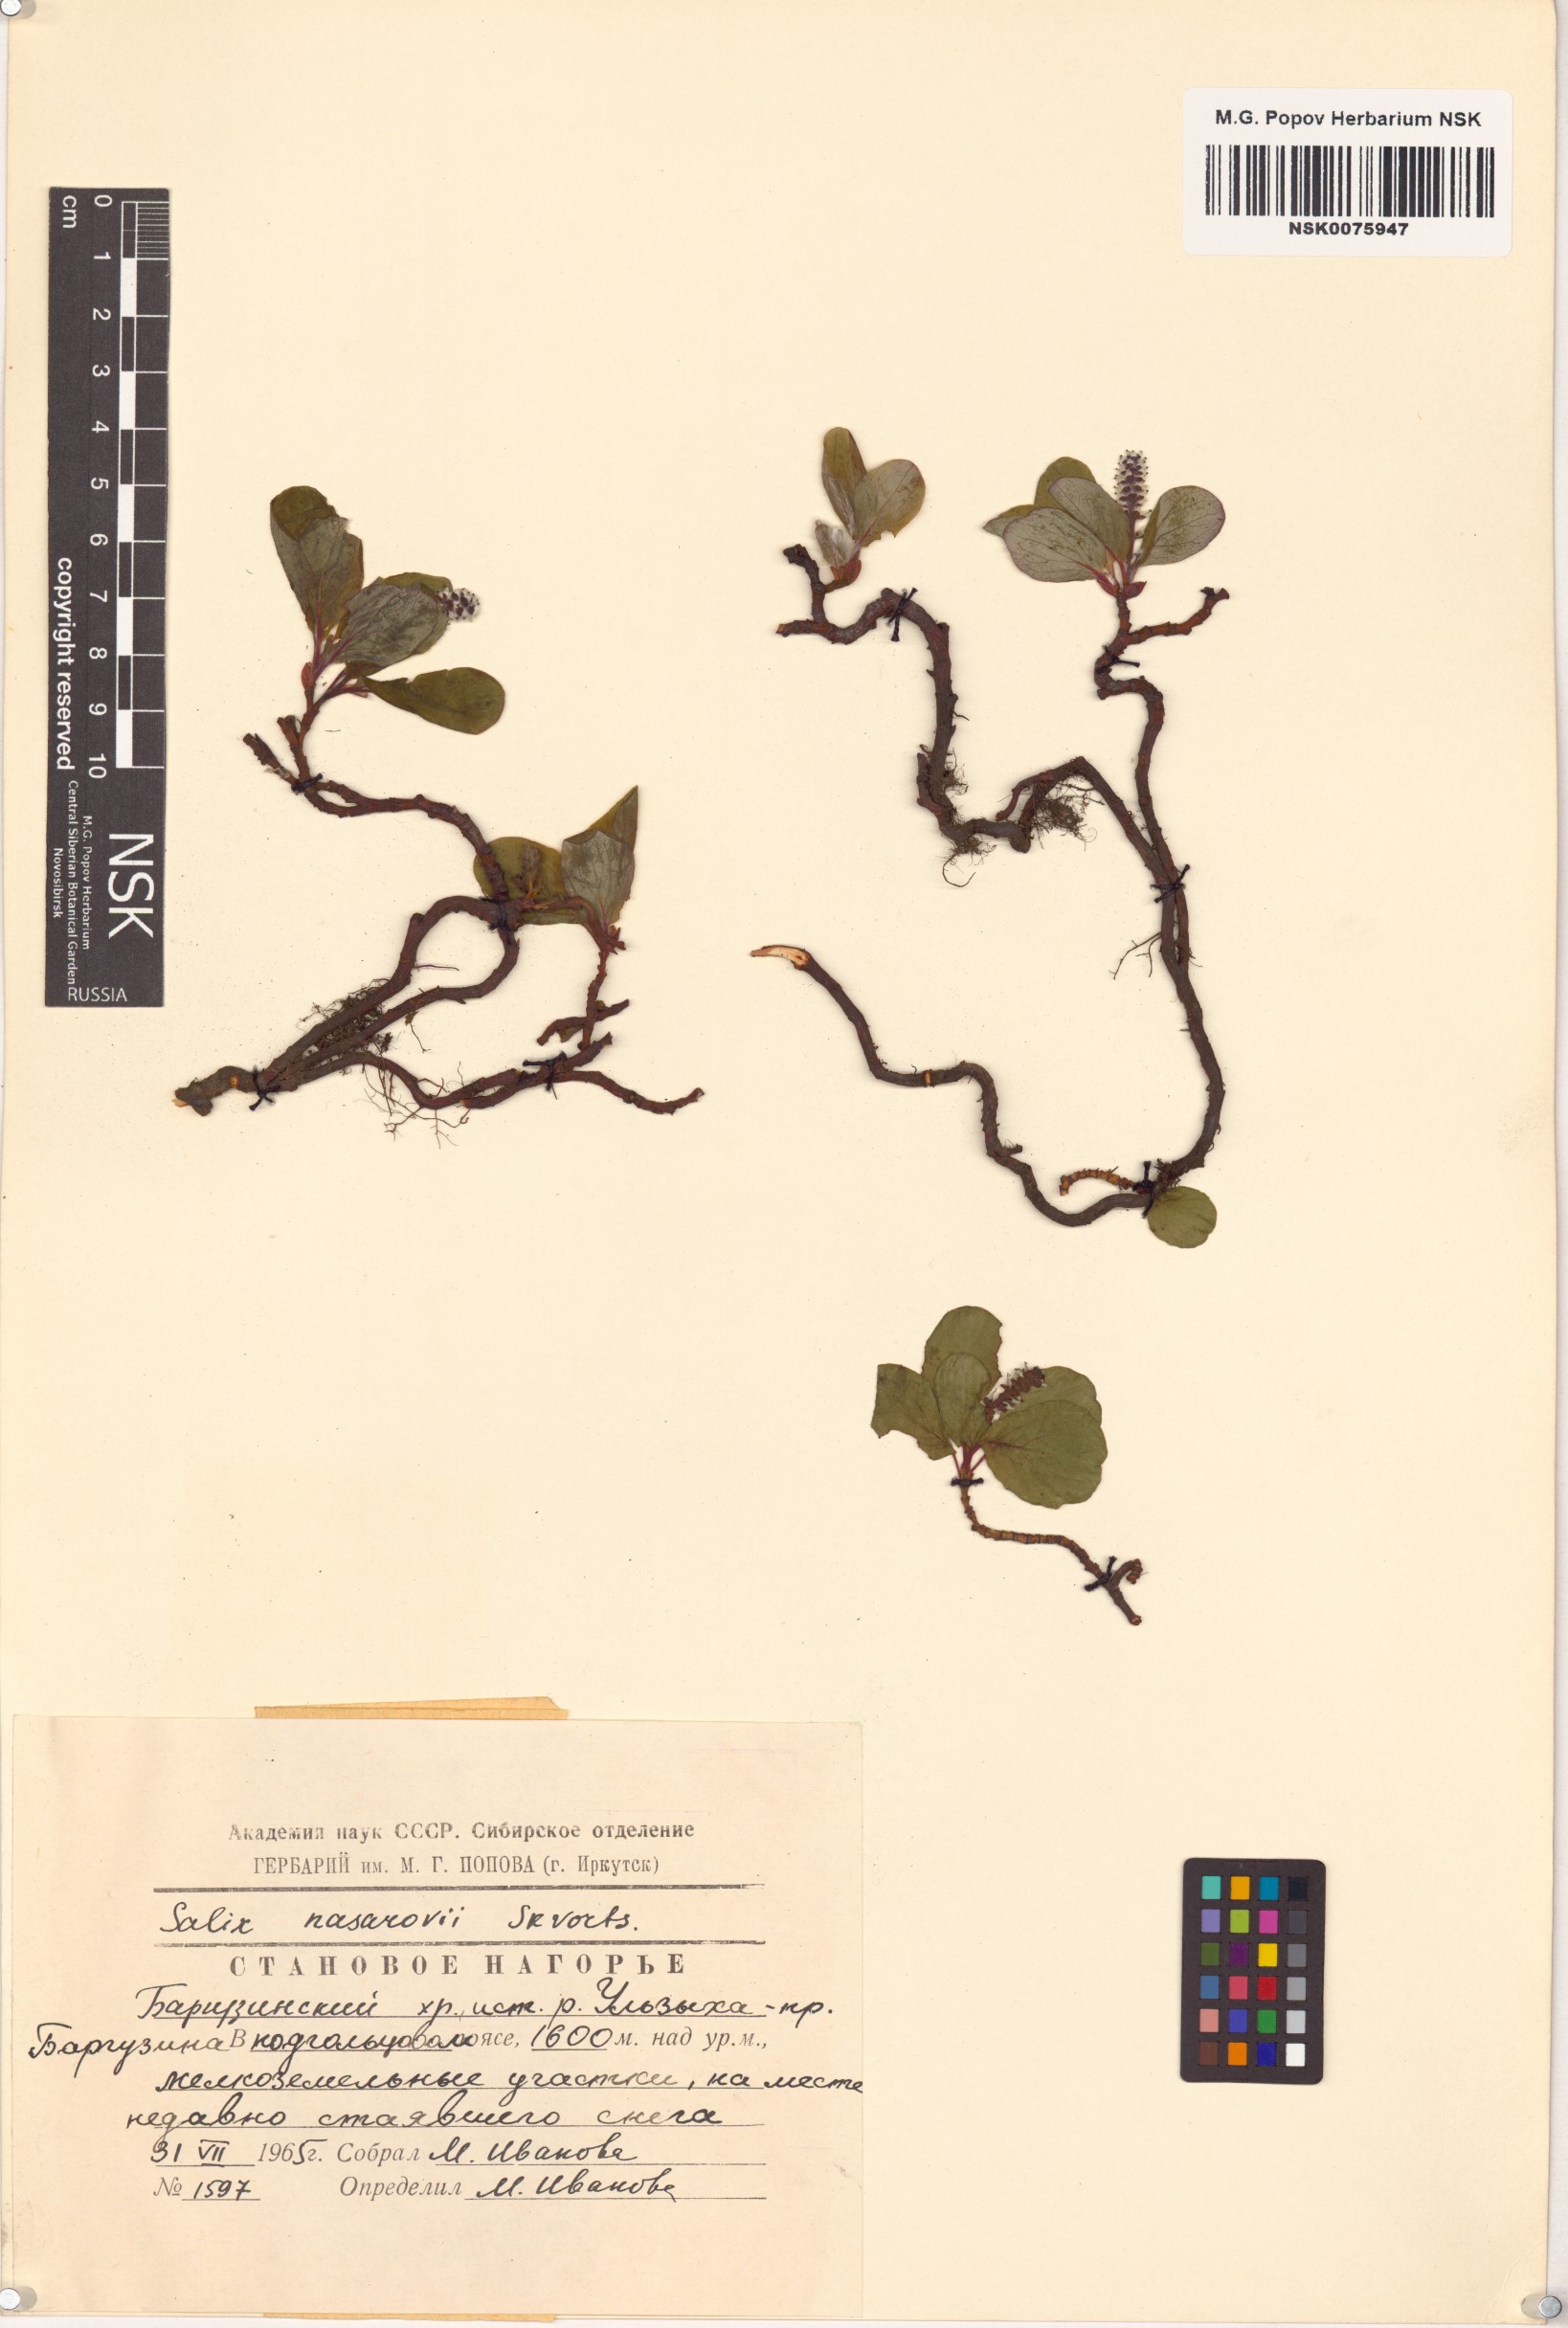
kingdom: Plantae
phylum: Tracheophyta
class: Magnoliopsida
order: Malpighiales
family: Salicaceae
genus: Salix
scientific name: Salix nasarovii
